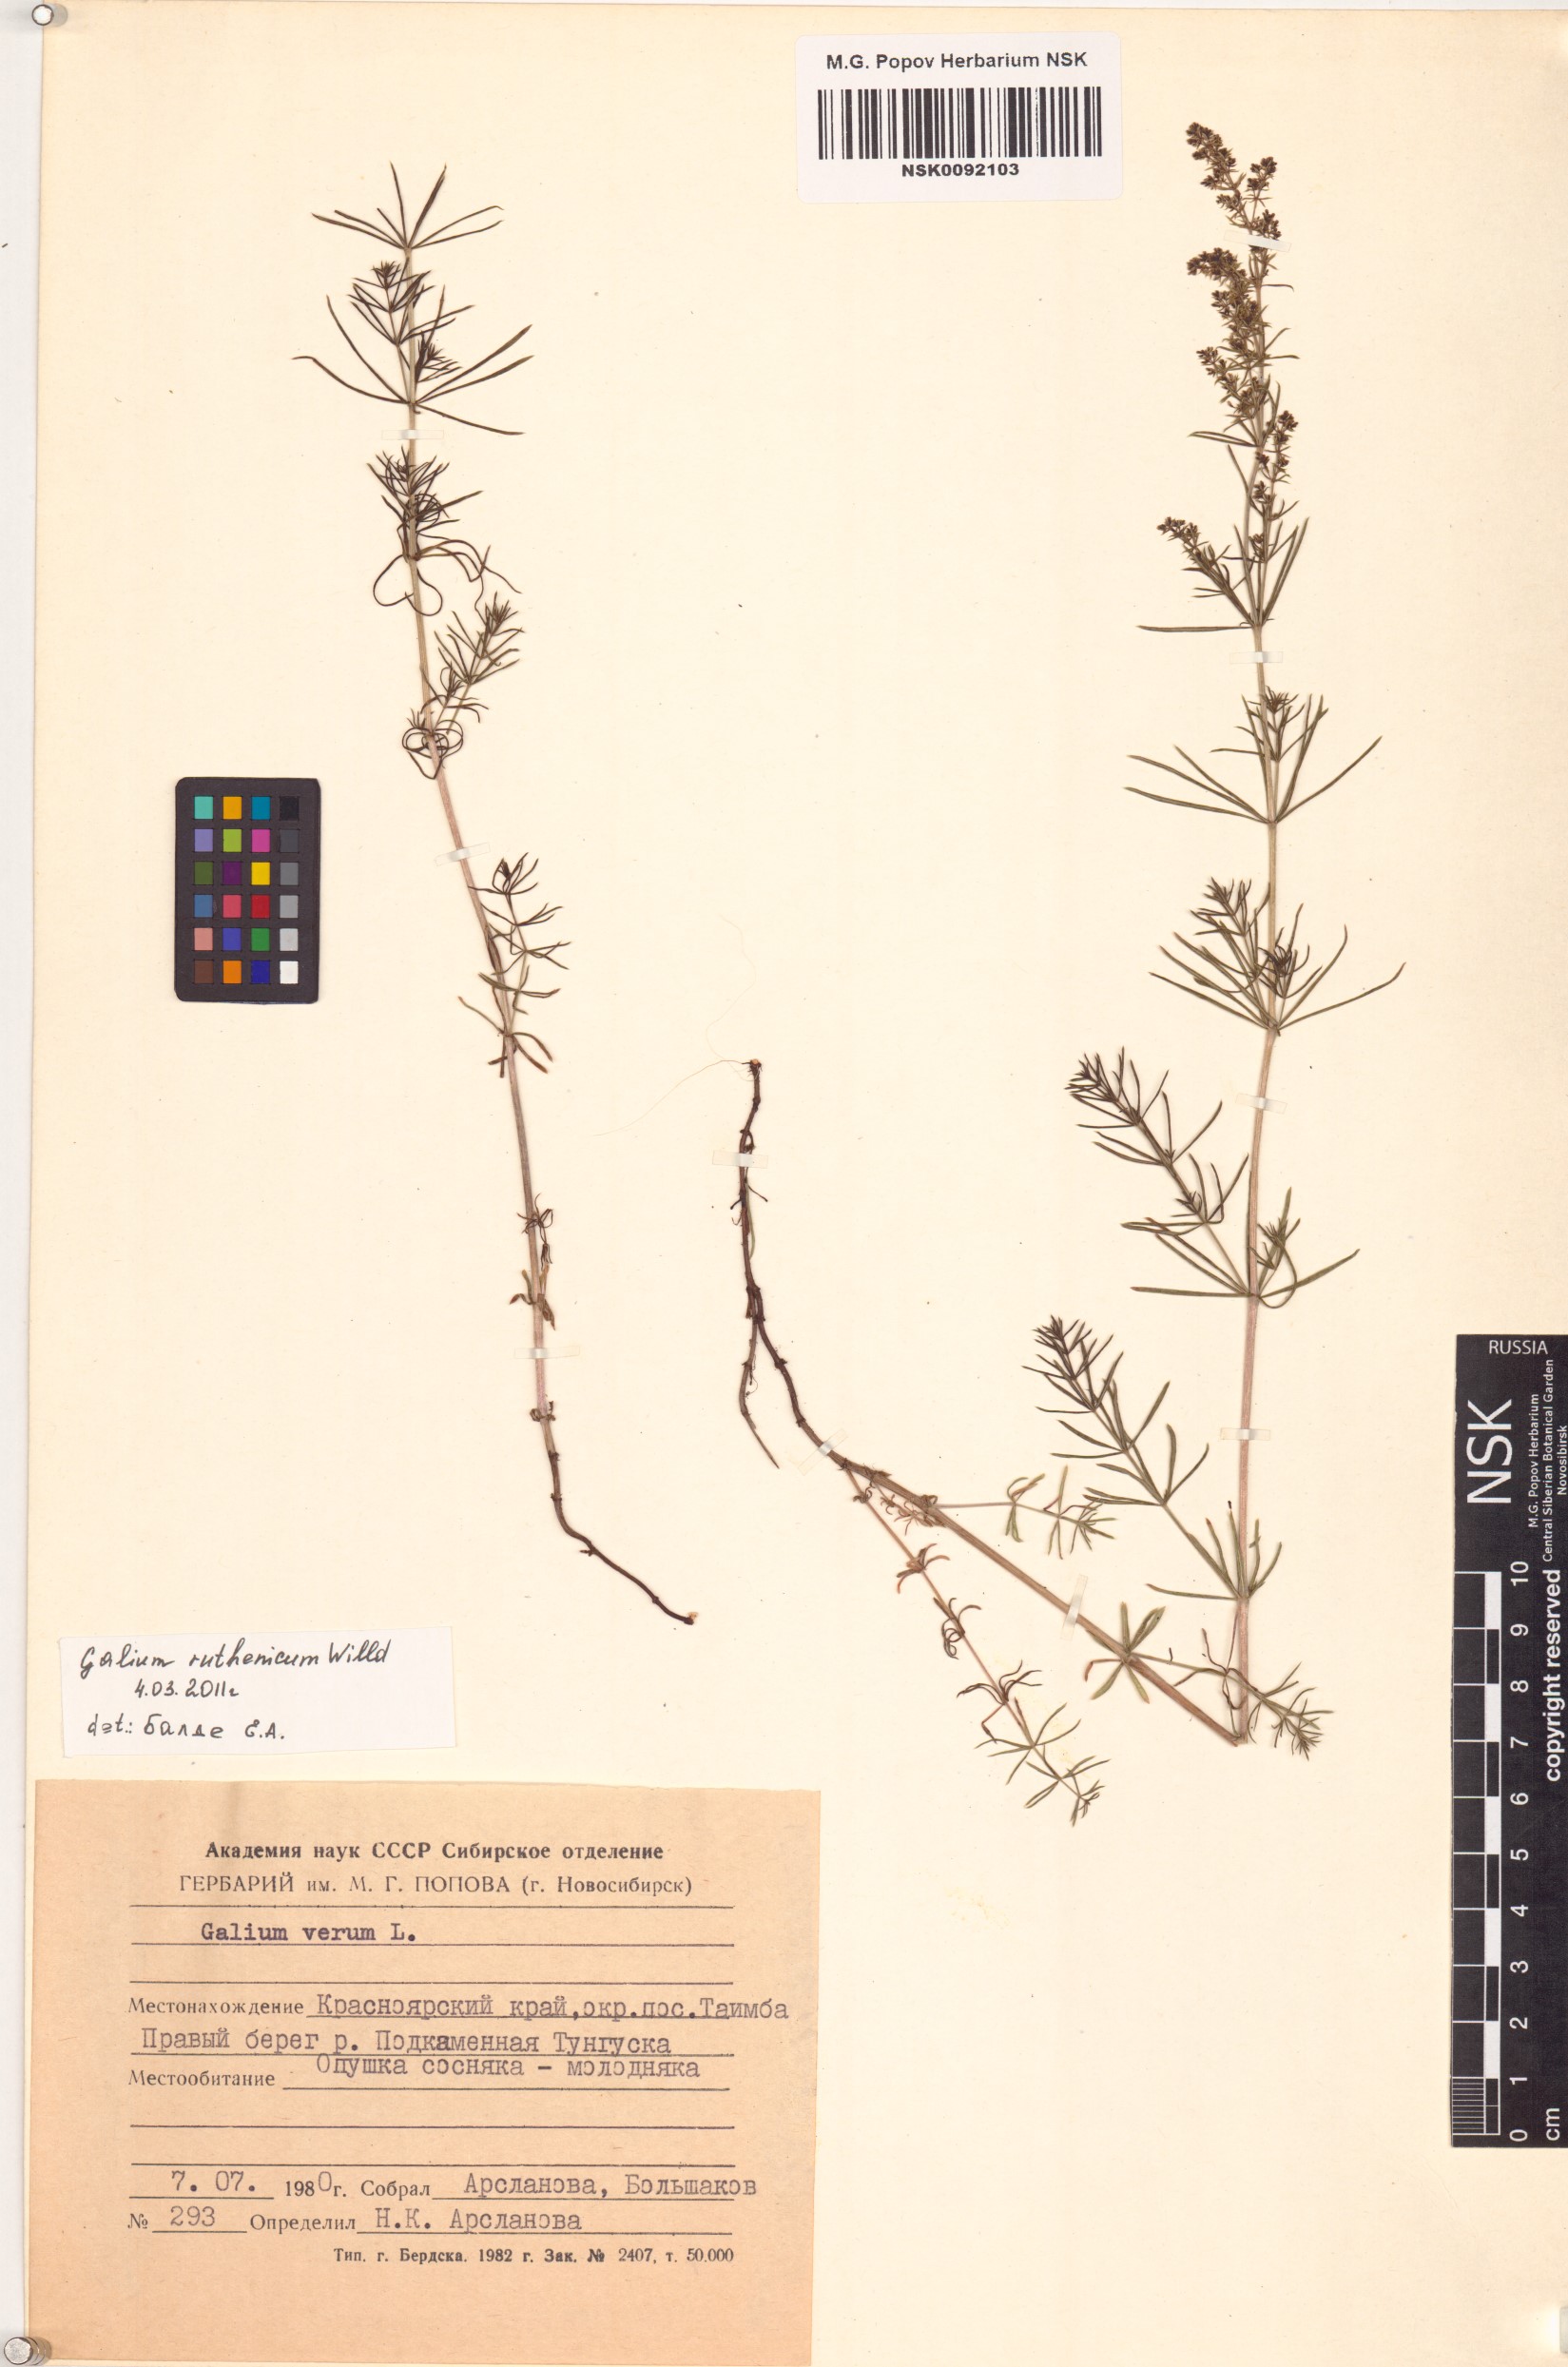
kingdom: Plantae
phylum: Tracheophyta
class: Magnoliopsida
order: Gentianales
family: Rubiaceae
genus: Galium
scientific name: Galium verum
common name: Lady's bedstraw
